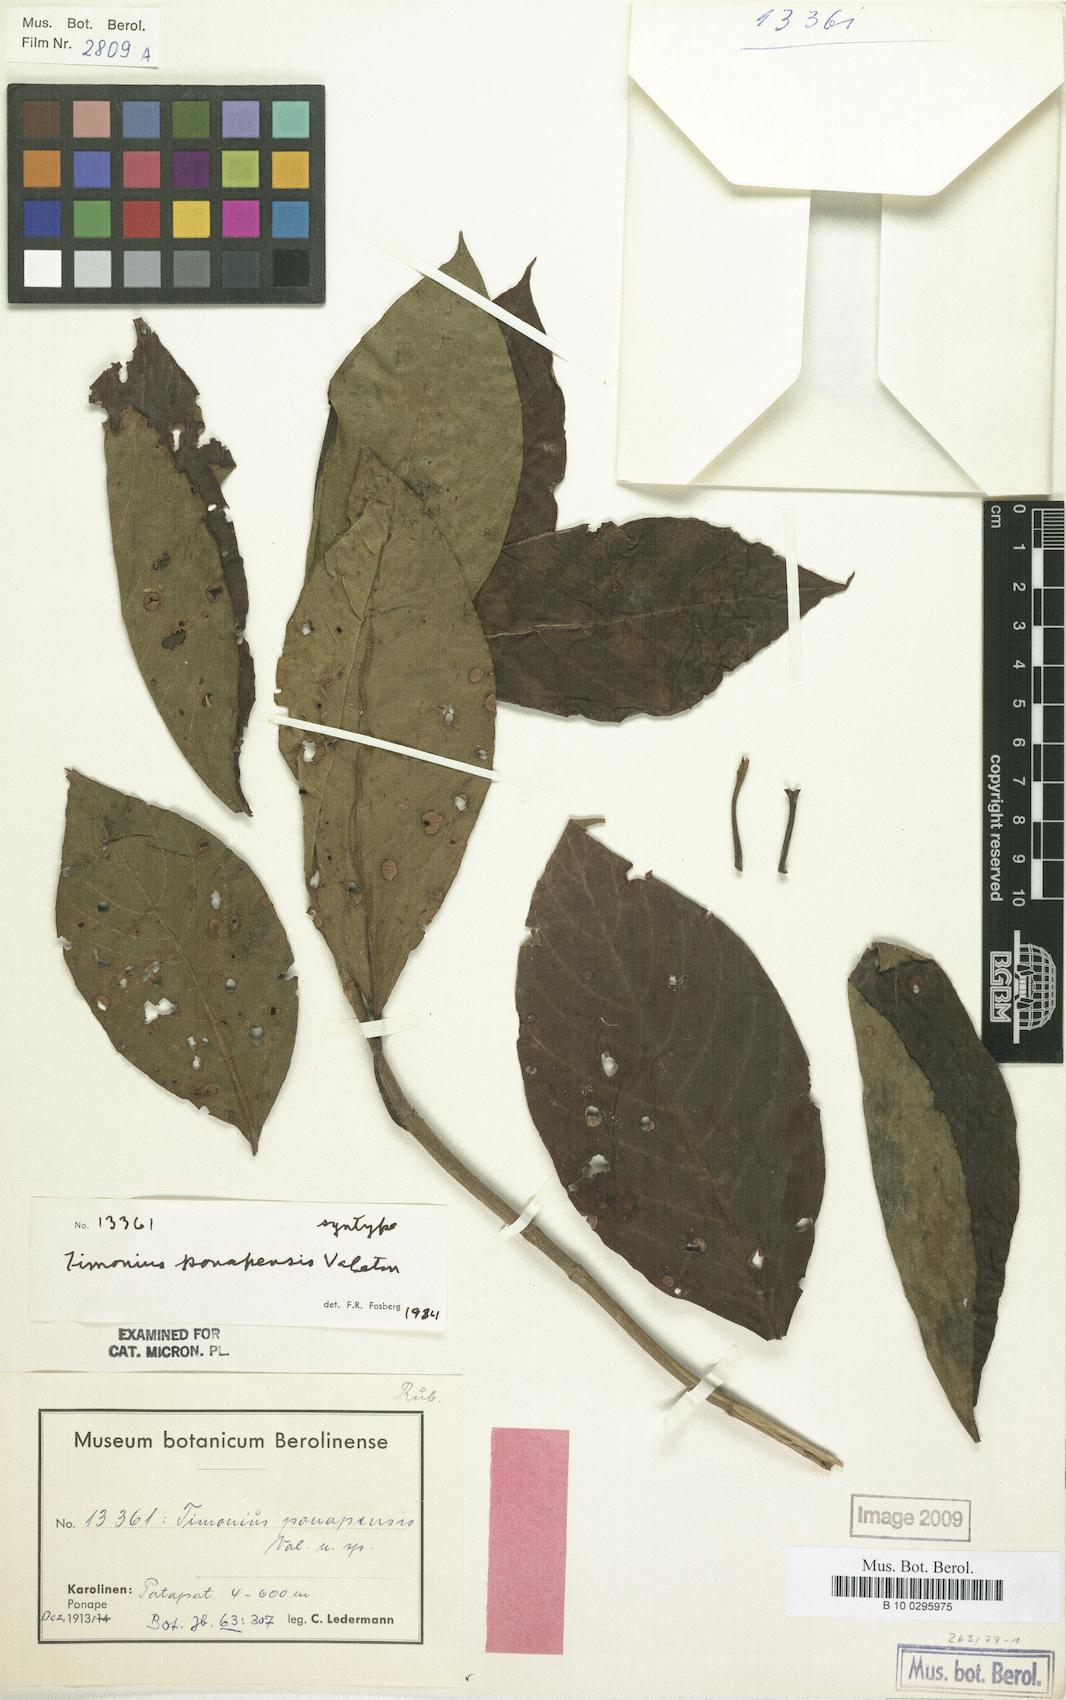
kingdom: Plantae
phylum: Tracheophyta
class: Magnoliopsida
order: Gentianales
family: Rubiaceae
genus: Timonius
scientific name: Timonius ponapensis
